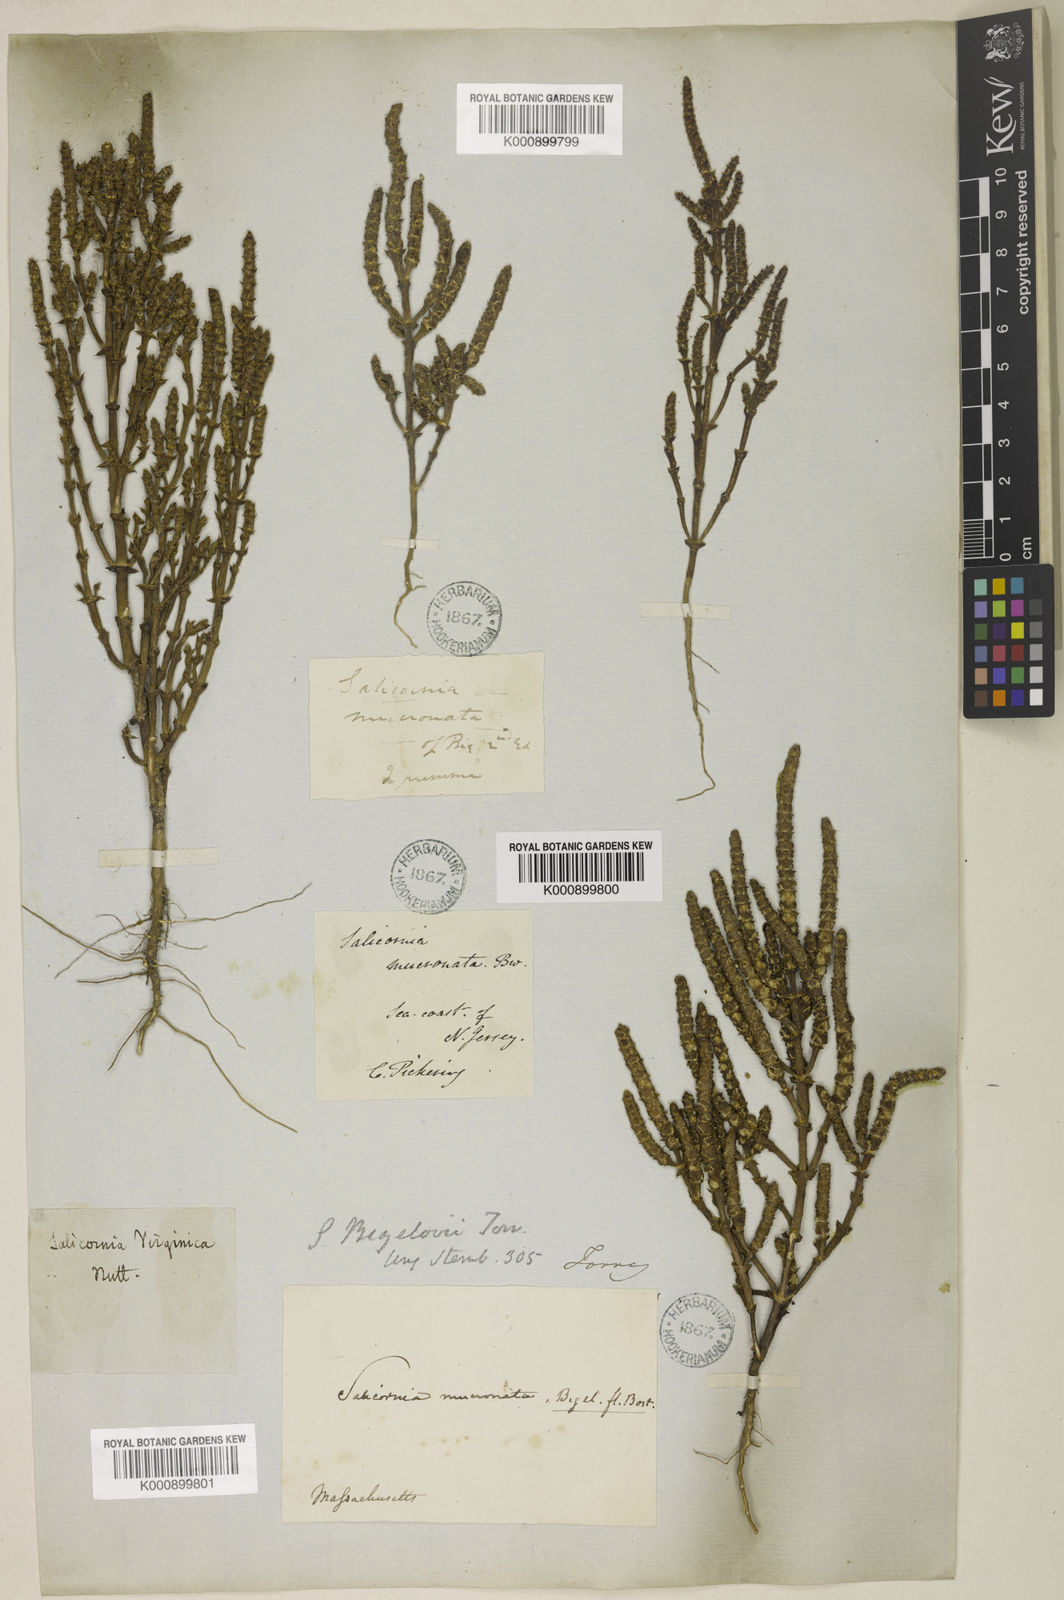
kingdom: Plantae
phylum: Tracheophyta
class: Magnoliopsida
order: Caryophyllales
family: Amaranthaceae
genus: Salicornia
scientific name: Salicornia bigelovii
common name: Dwarf glasswort
